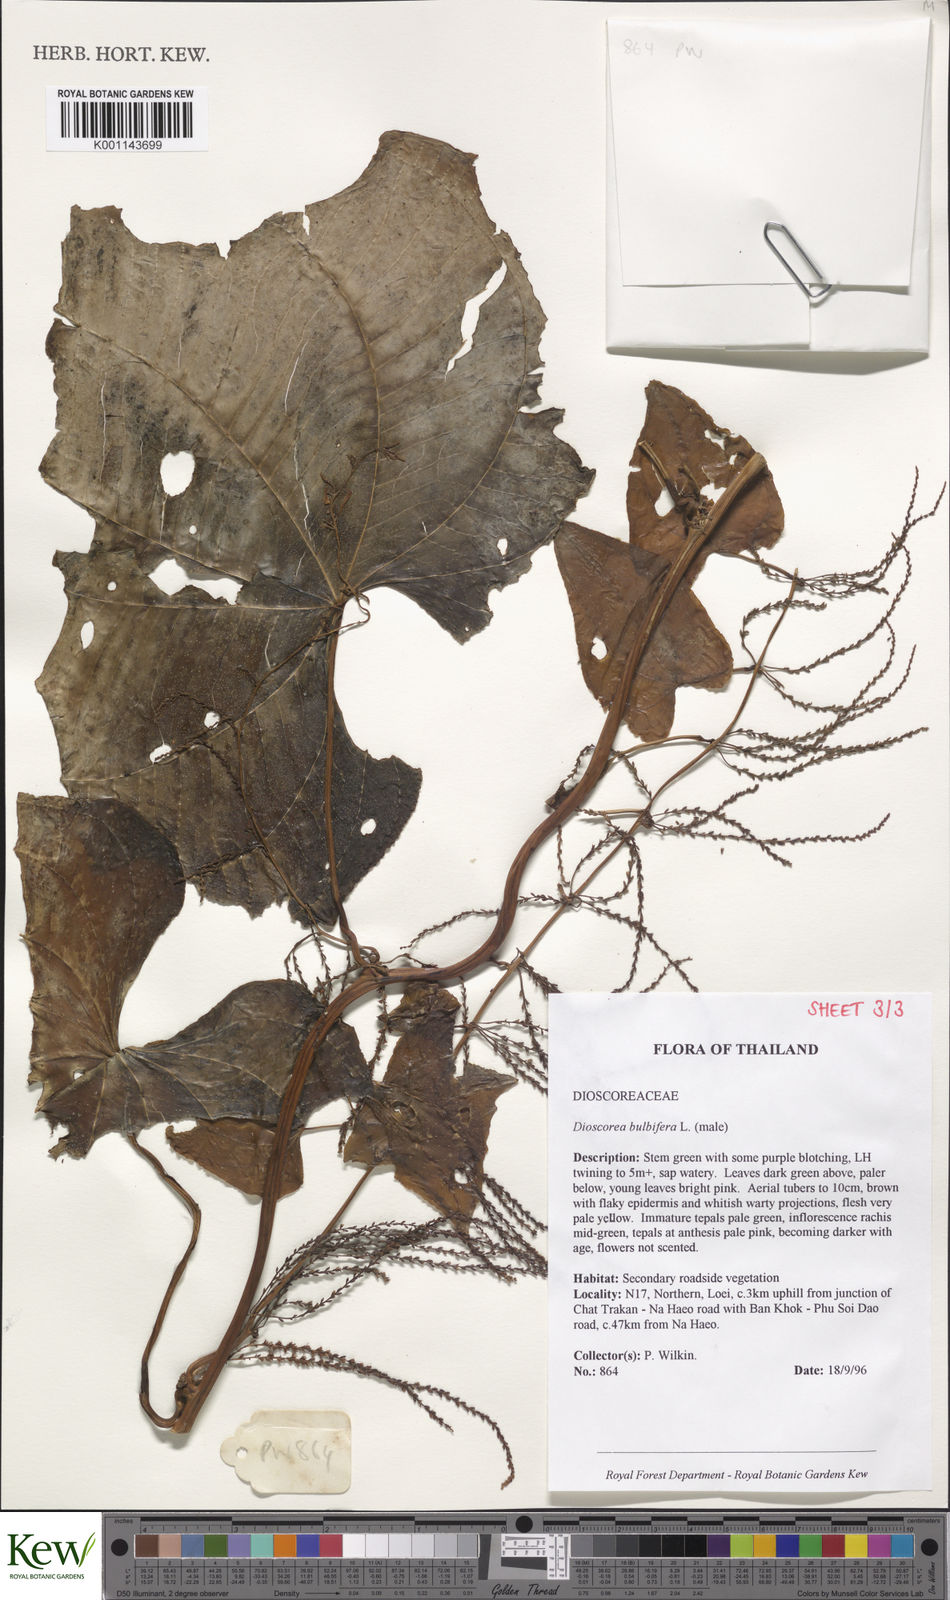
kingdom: Plantae
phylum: Tracheophyta
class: Liliopsida
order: Dioscoreales
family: Dioscoreaceae
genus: Dioscorea
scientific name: Dioscorea bulbifera
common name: Air yam
